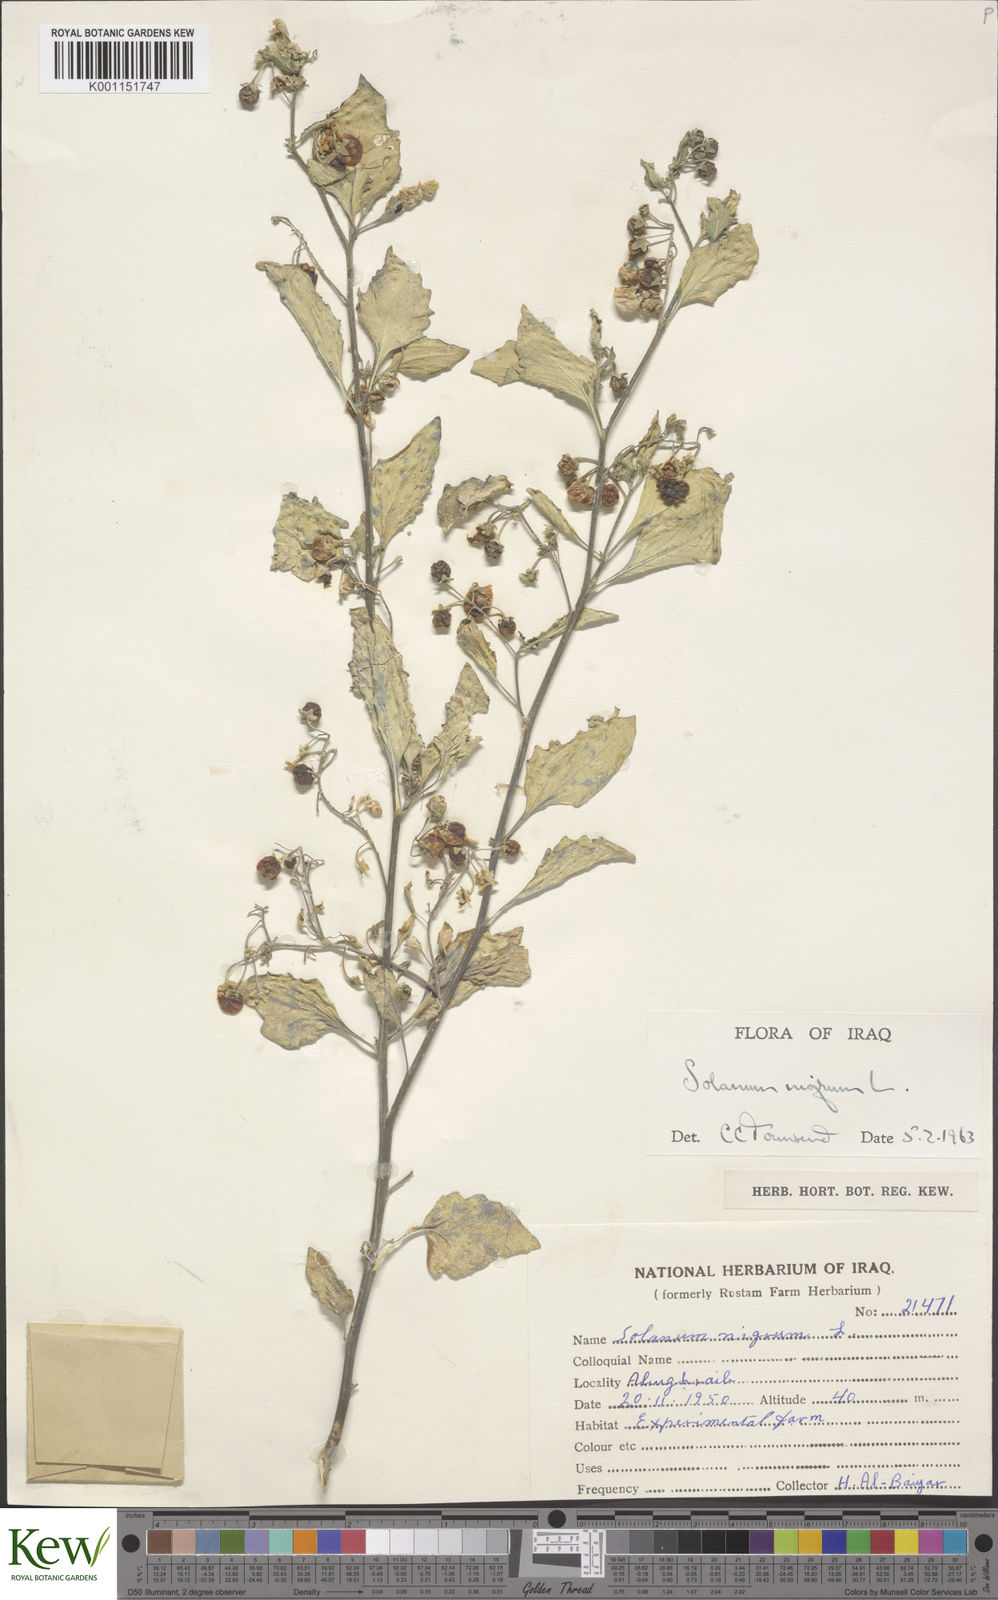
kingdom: Plantae
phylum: Tracheophyta
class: Magnoliopsida
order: Solanales
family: Solanaceae
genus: Solanum
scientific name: Solanum nigrum
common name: Black nightshade
